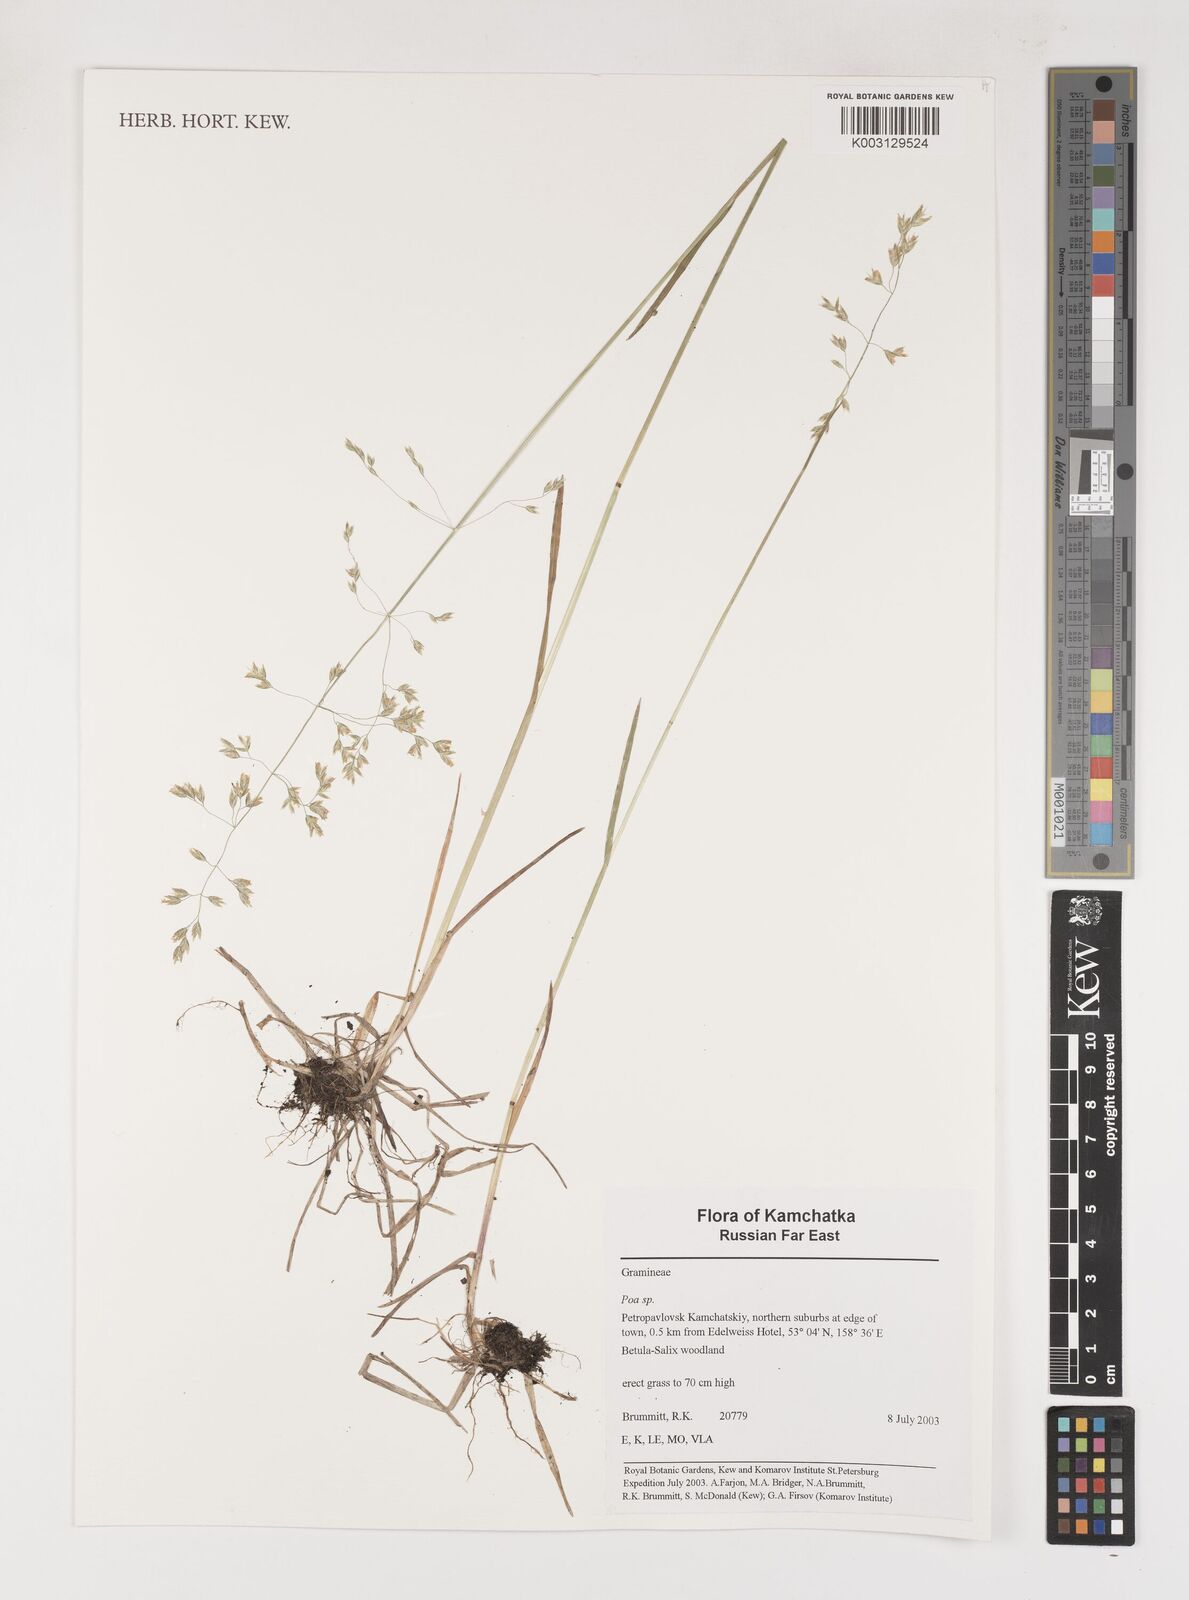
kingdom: Plantae
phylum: Tracheophyta
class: Liliopsida
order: Poales
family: Poaceae
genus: Poa
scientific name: Poa
